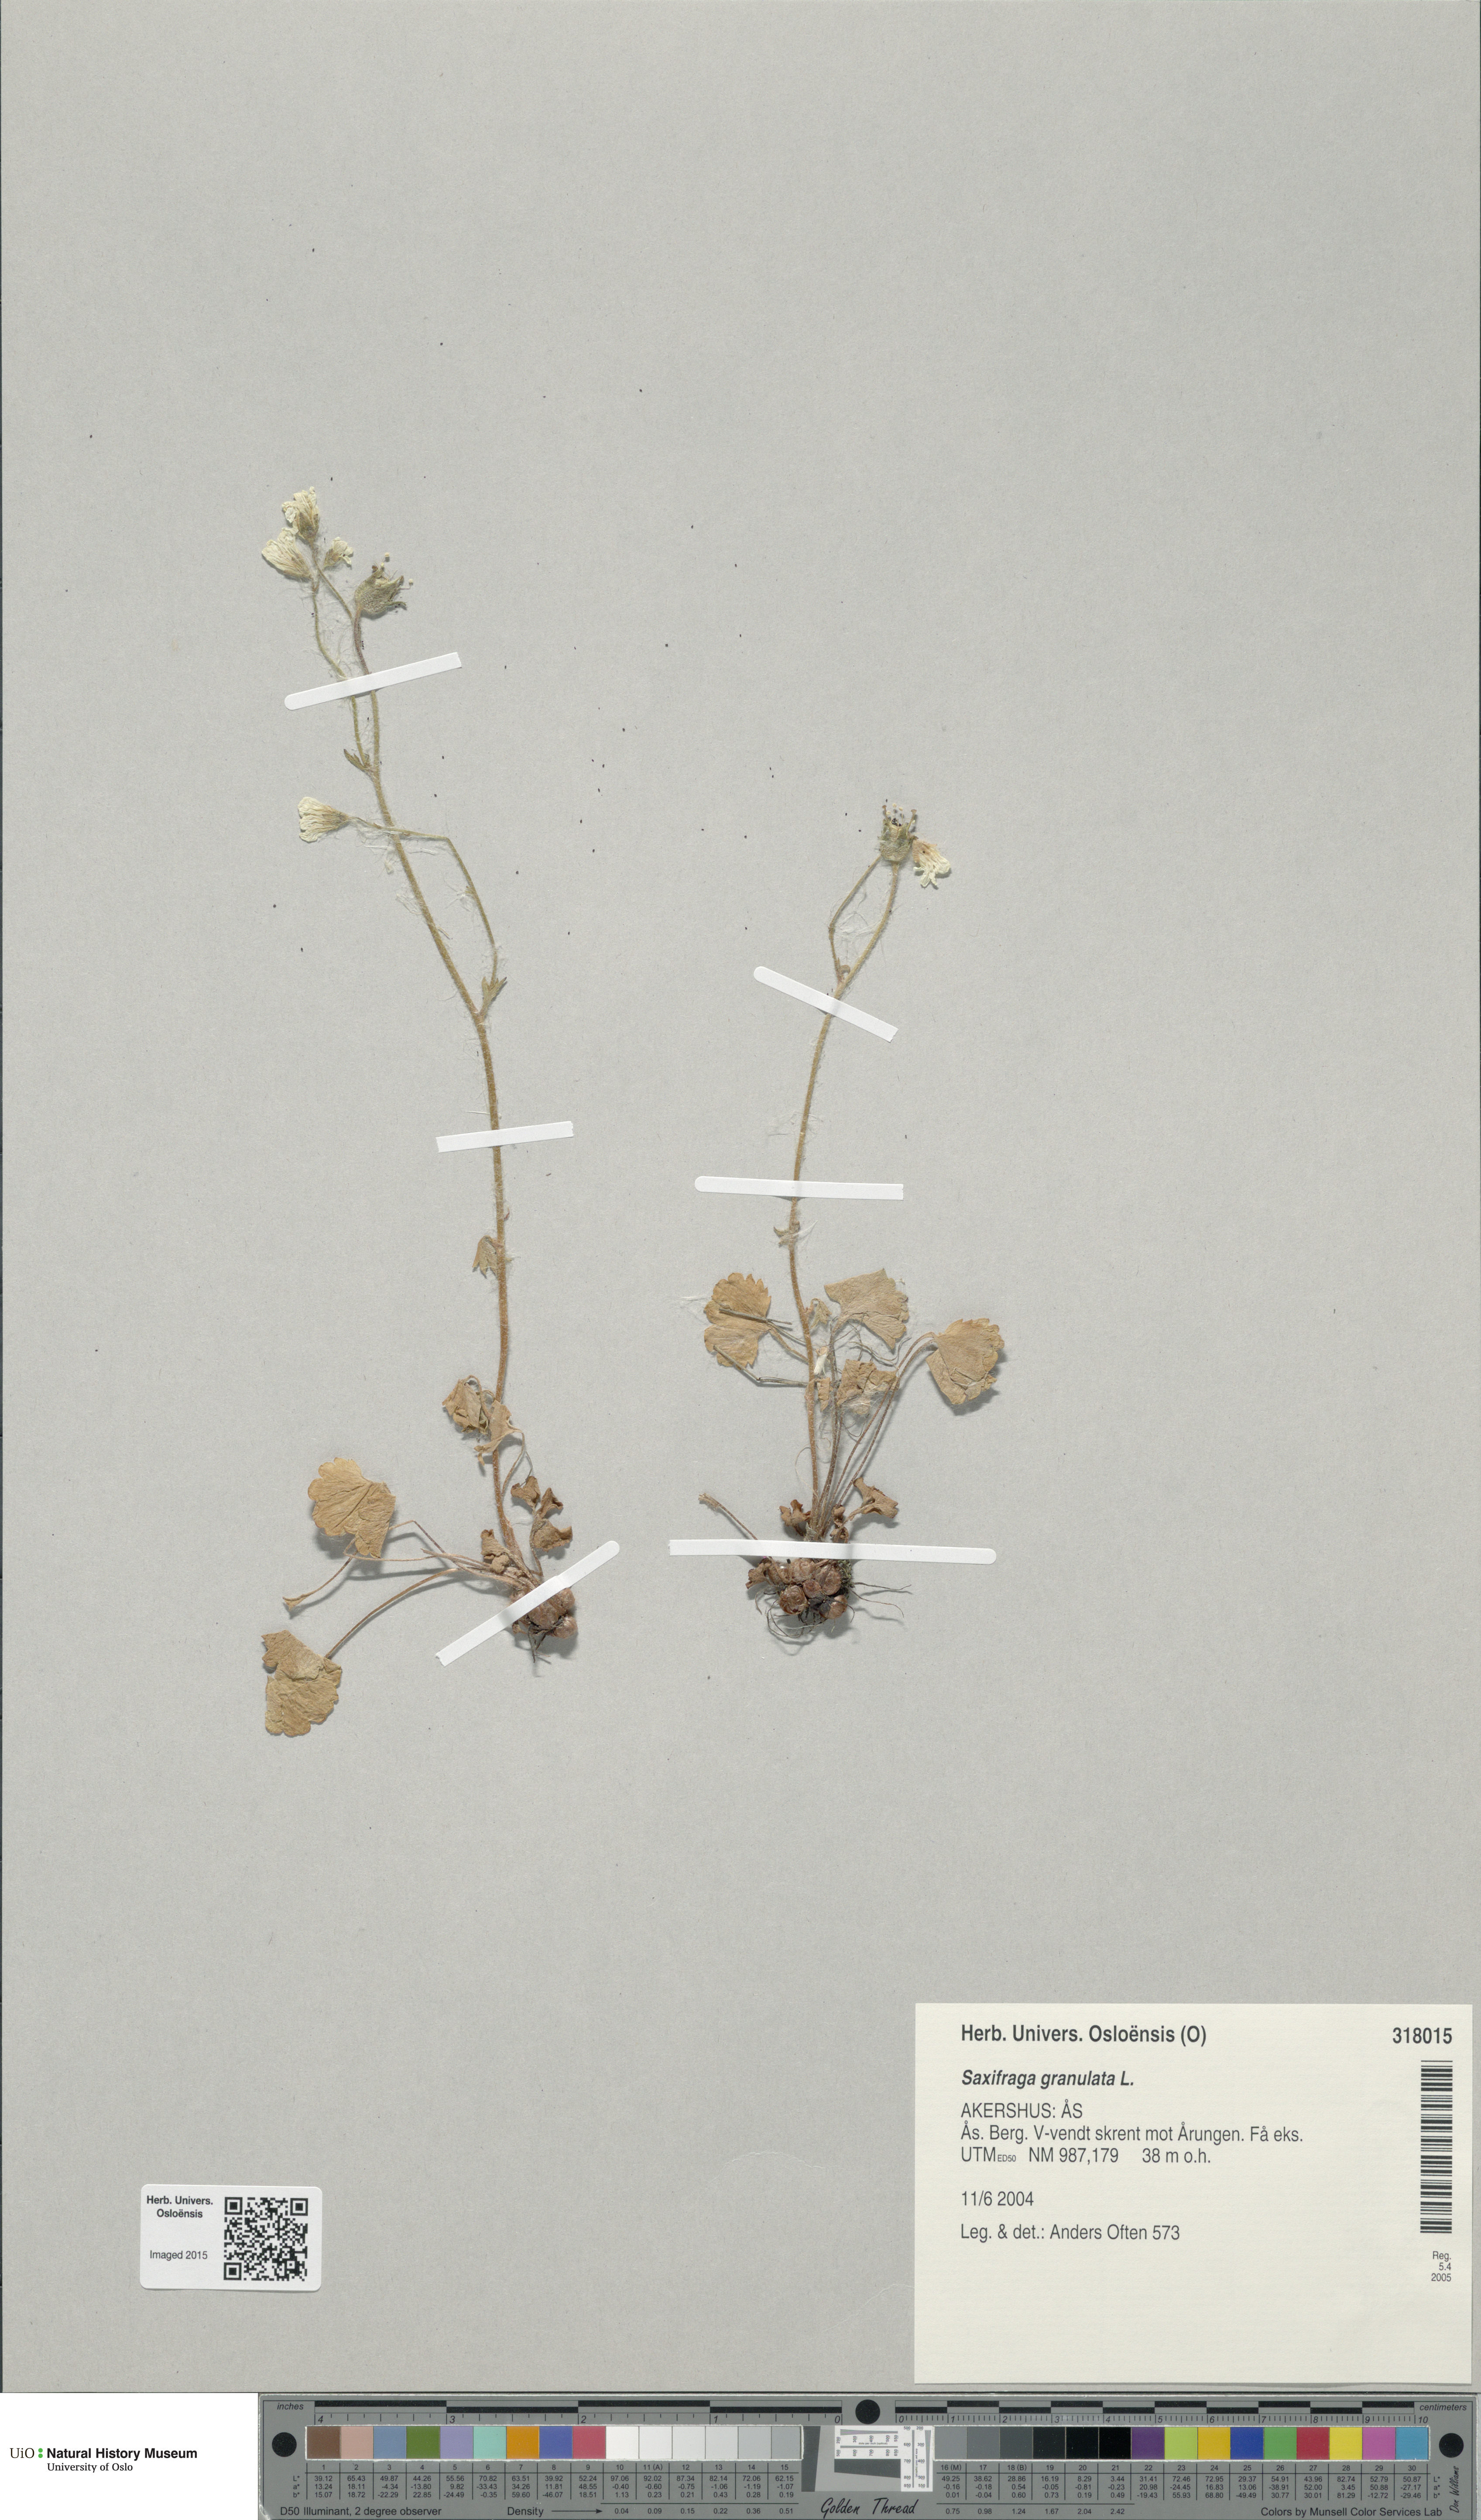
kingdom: Plantae
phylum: Tracheophyta
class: Magnoliopsida
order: Saxifragales
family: Saxifragaceae
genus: Saxifraga
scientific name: Saxifraga granulata
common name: Meadow saxifrage
